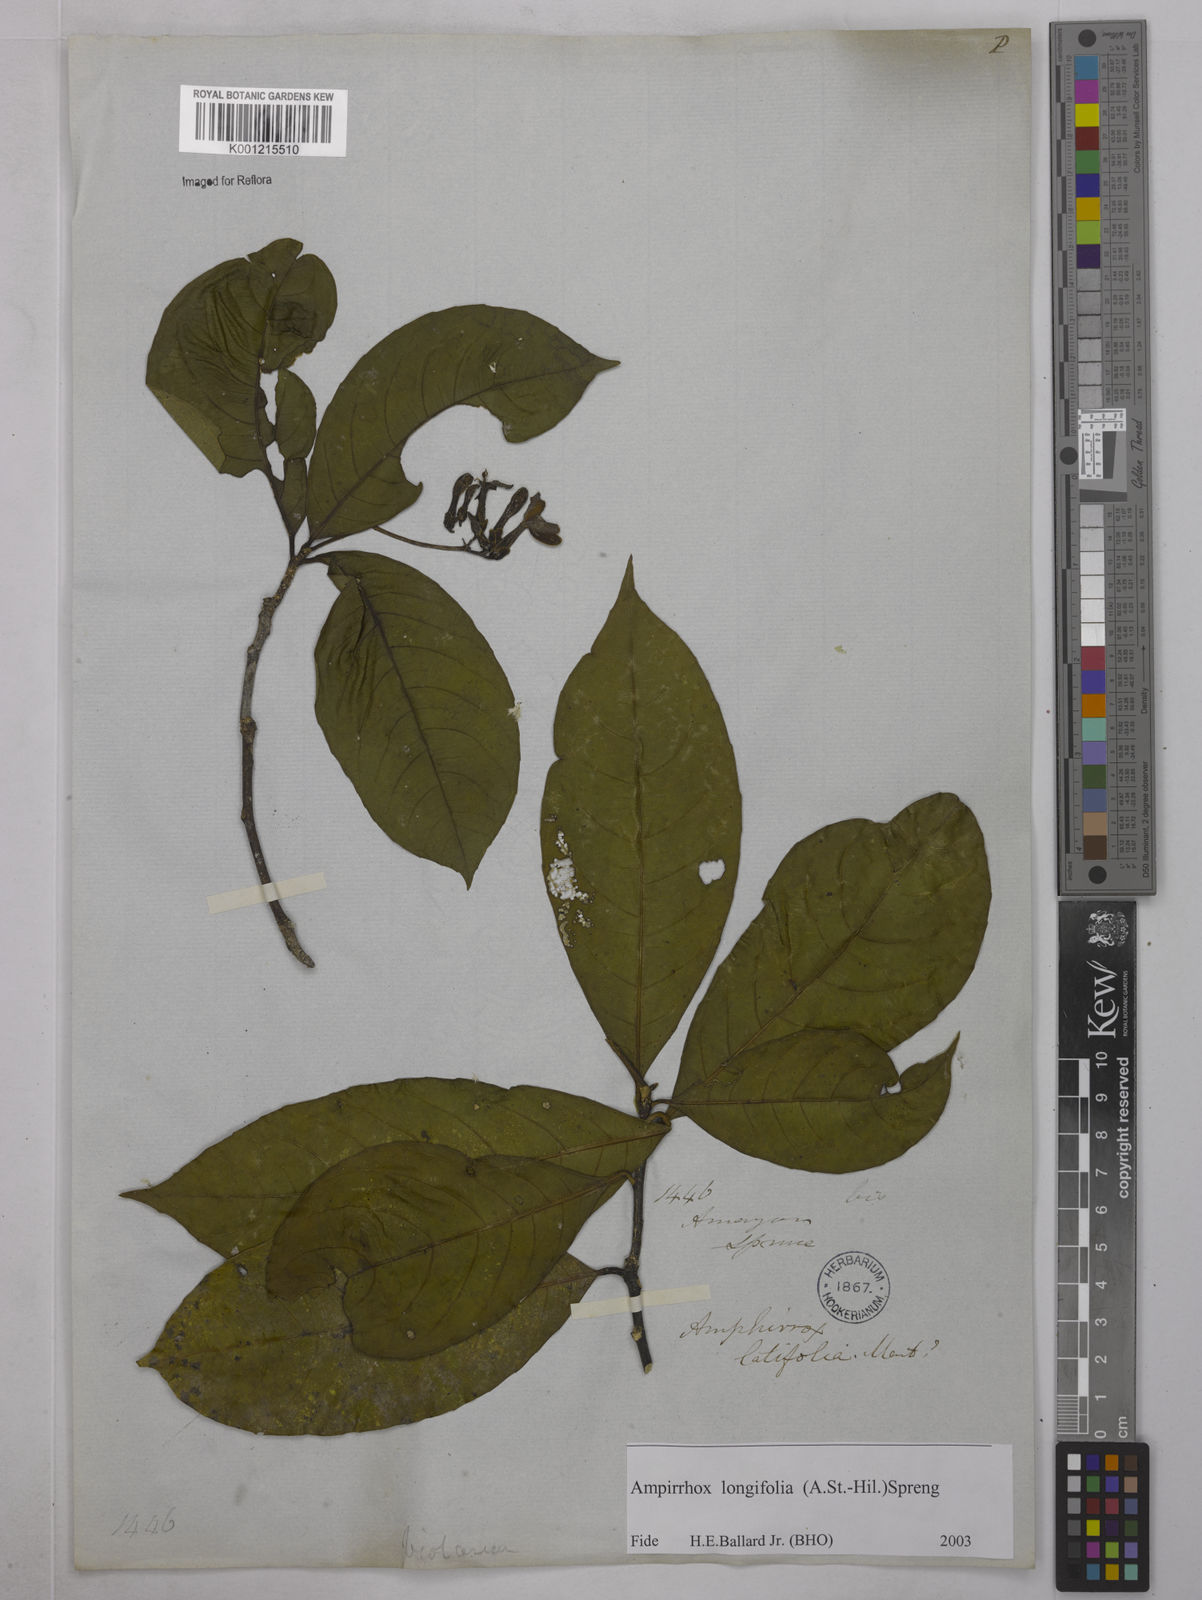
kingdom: Plantae
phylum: Tracheophyta
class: Magnoliopsida
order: Malpighiales
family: Violaceae
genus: Amphirrhox
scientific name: Amphirrhox longifolia
